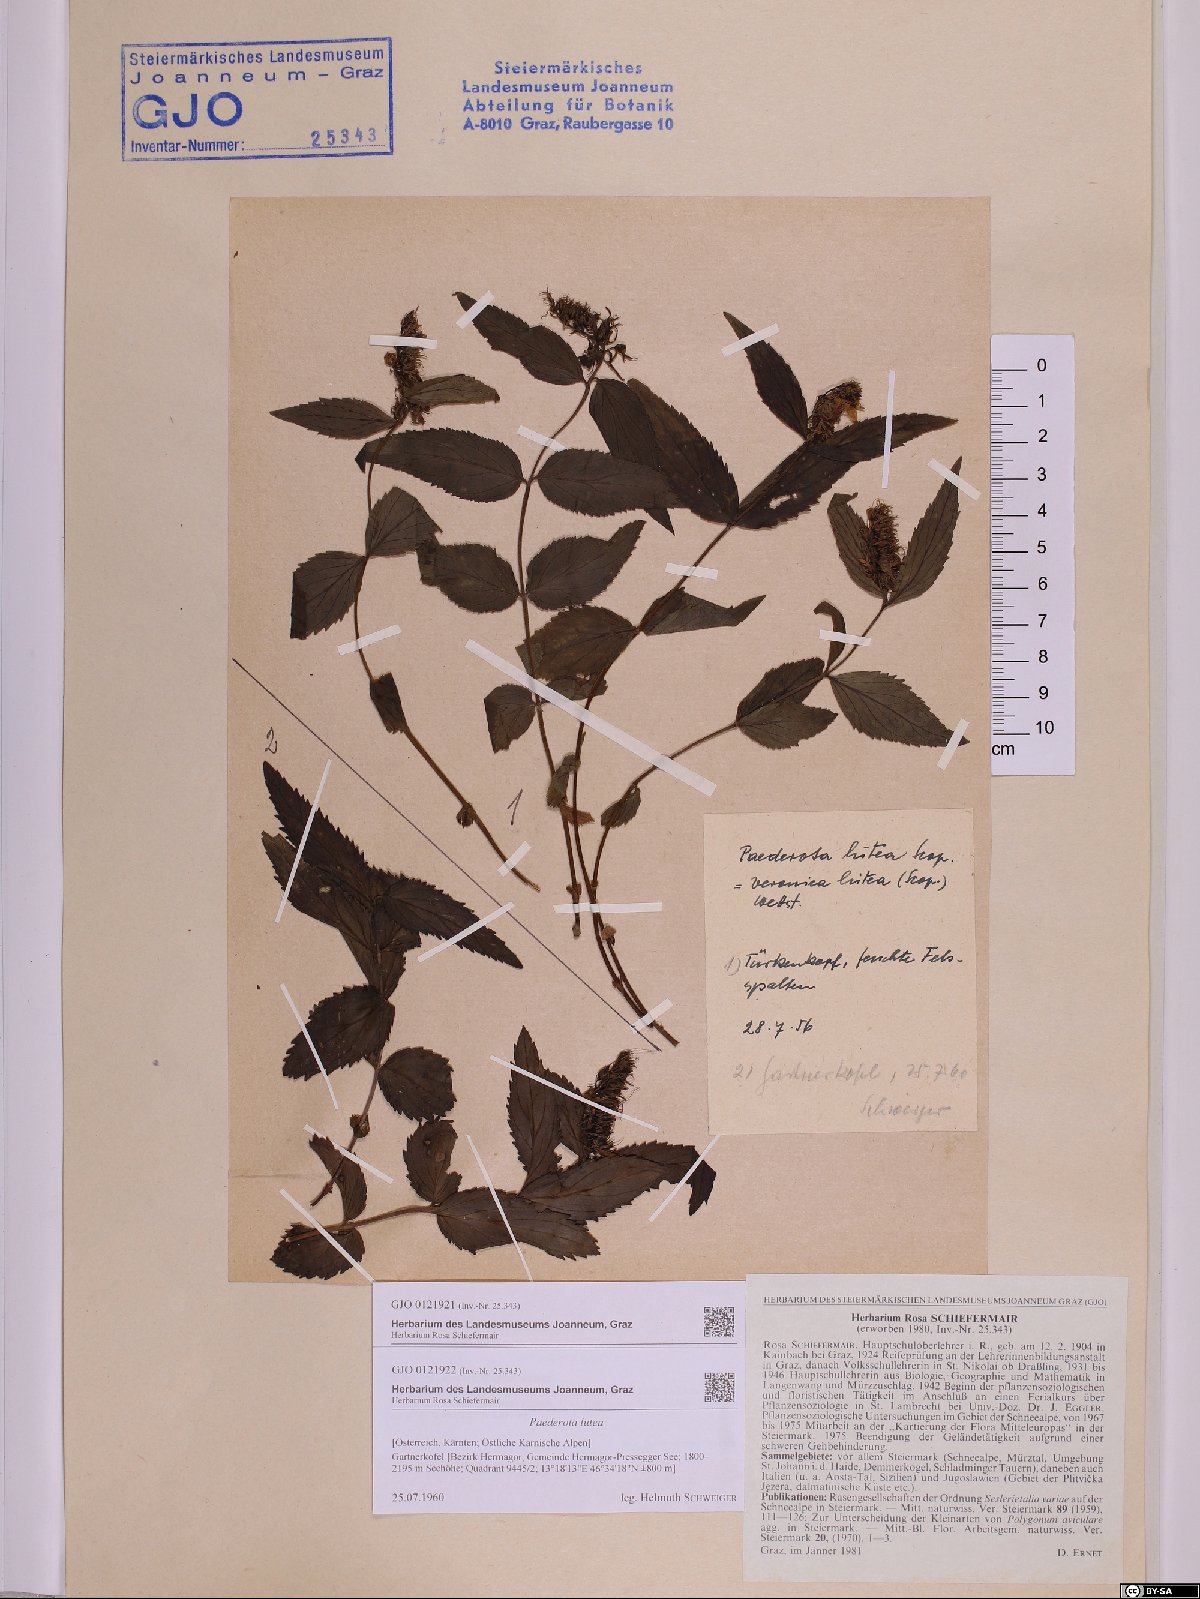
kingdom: Plantae
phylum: Tracheophyta
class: Magnoliopsida
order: Lamiales
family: Plantaginaceae
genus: Paederota
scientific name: Paederota lutea
